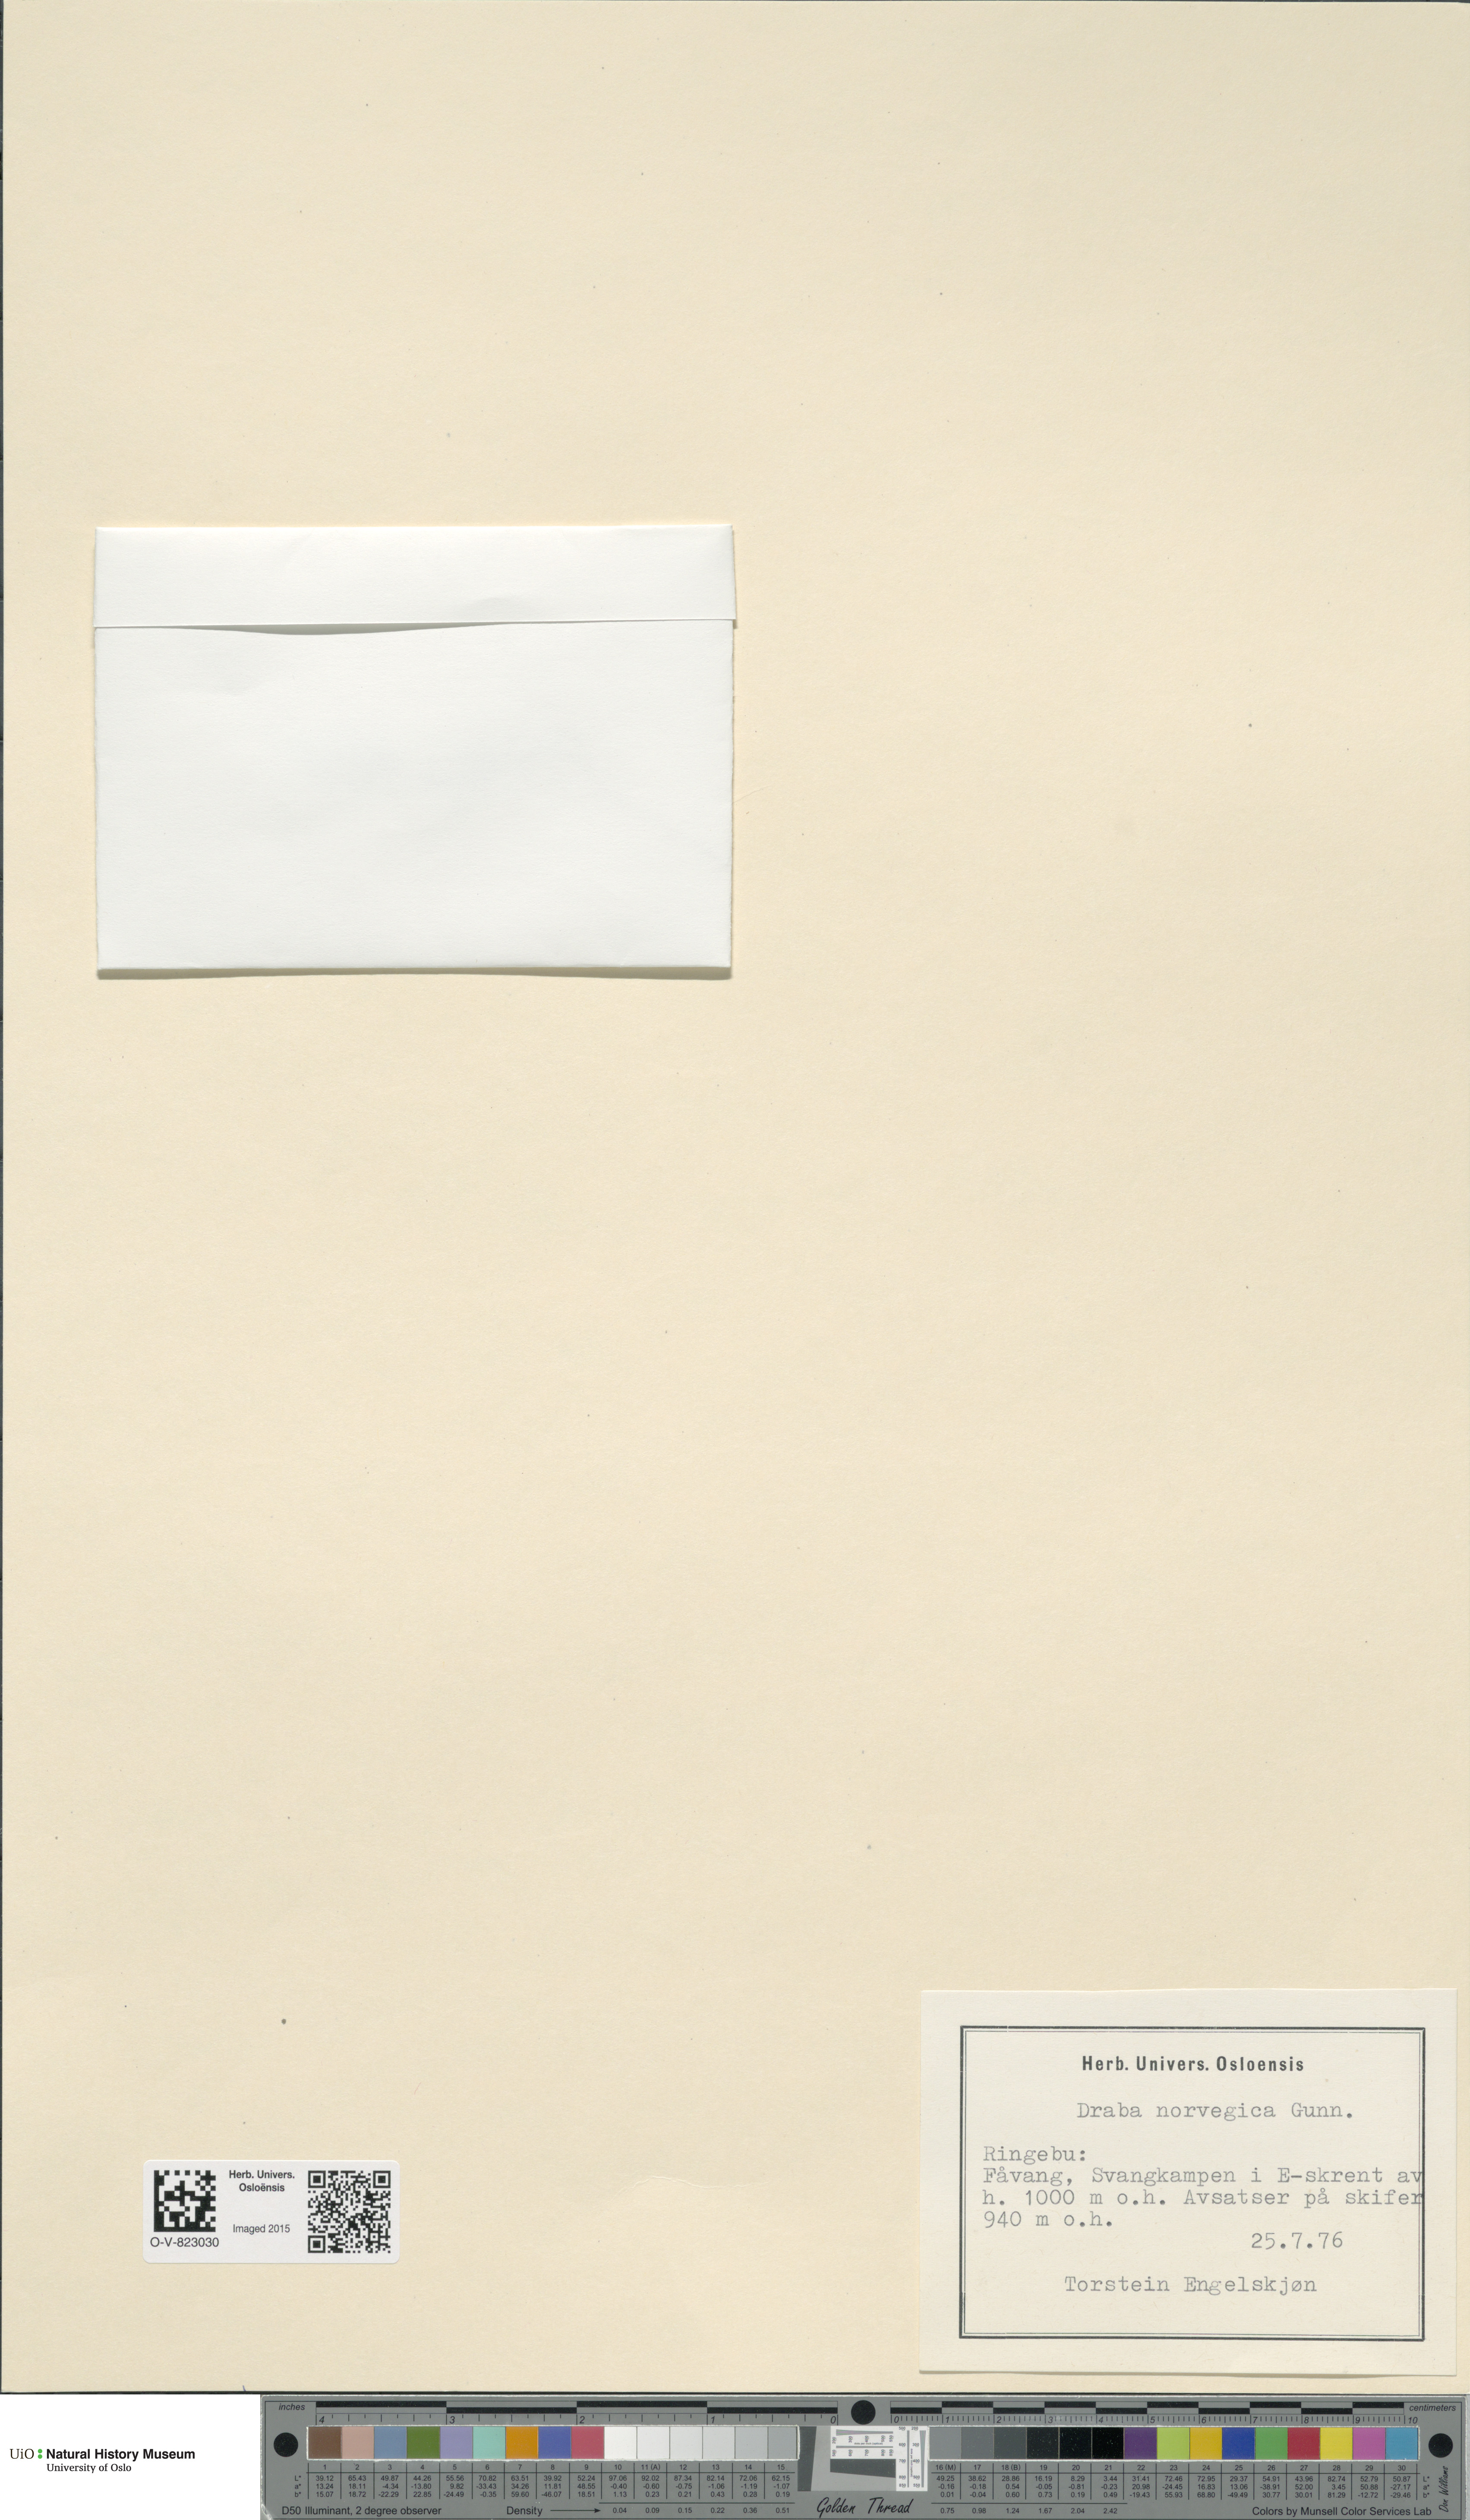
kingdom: Plantae
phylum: Tracheophyta
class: Magnoliopsida
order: Brassicales
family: Brassicaceae
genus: Draba
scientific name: Draba norvegica
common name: Rock whitlowgrass
